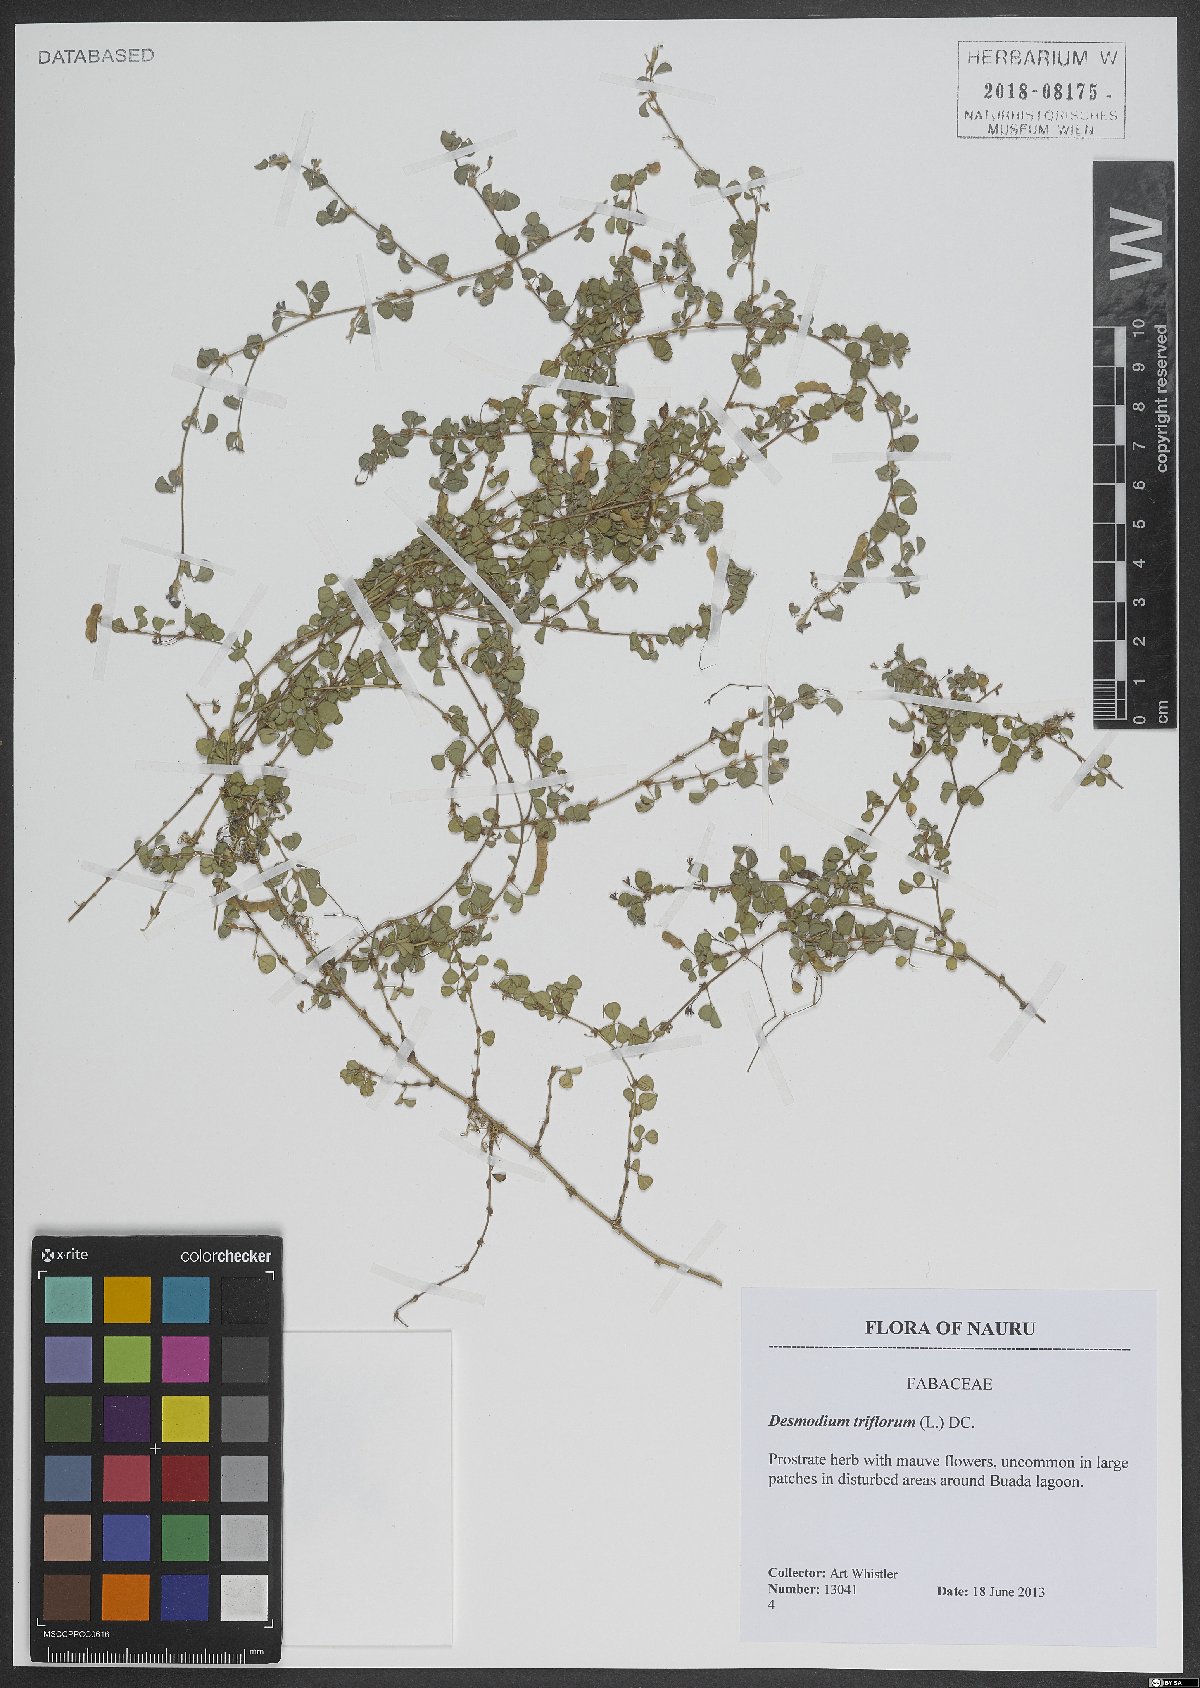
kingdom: Plantae
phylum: Tracheophyta
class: Magnoliopsida
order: Fabales
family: Fabaceae
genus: Grona
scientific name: Grona triflora
